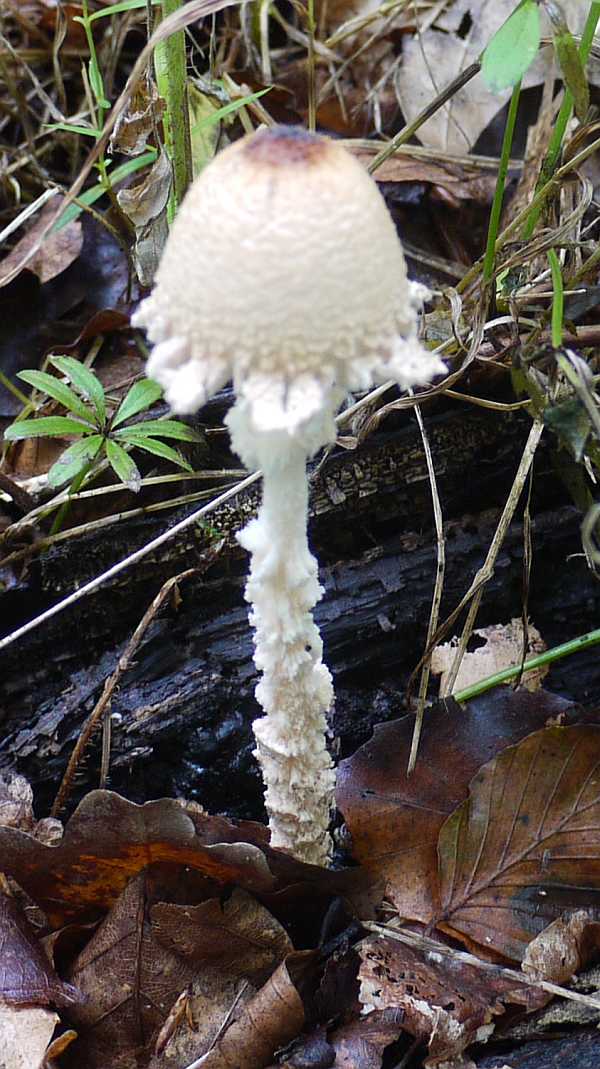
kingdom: Fungi
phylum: Basidiomycota
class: Agaricomycetes
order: Agaricales
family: Agaricaceae
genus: Lepiota
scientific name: Lepiota clypeolaria
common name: flosset parasolhat
